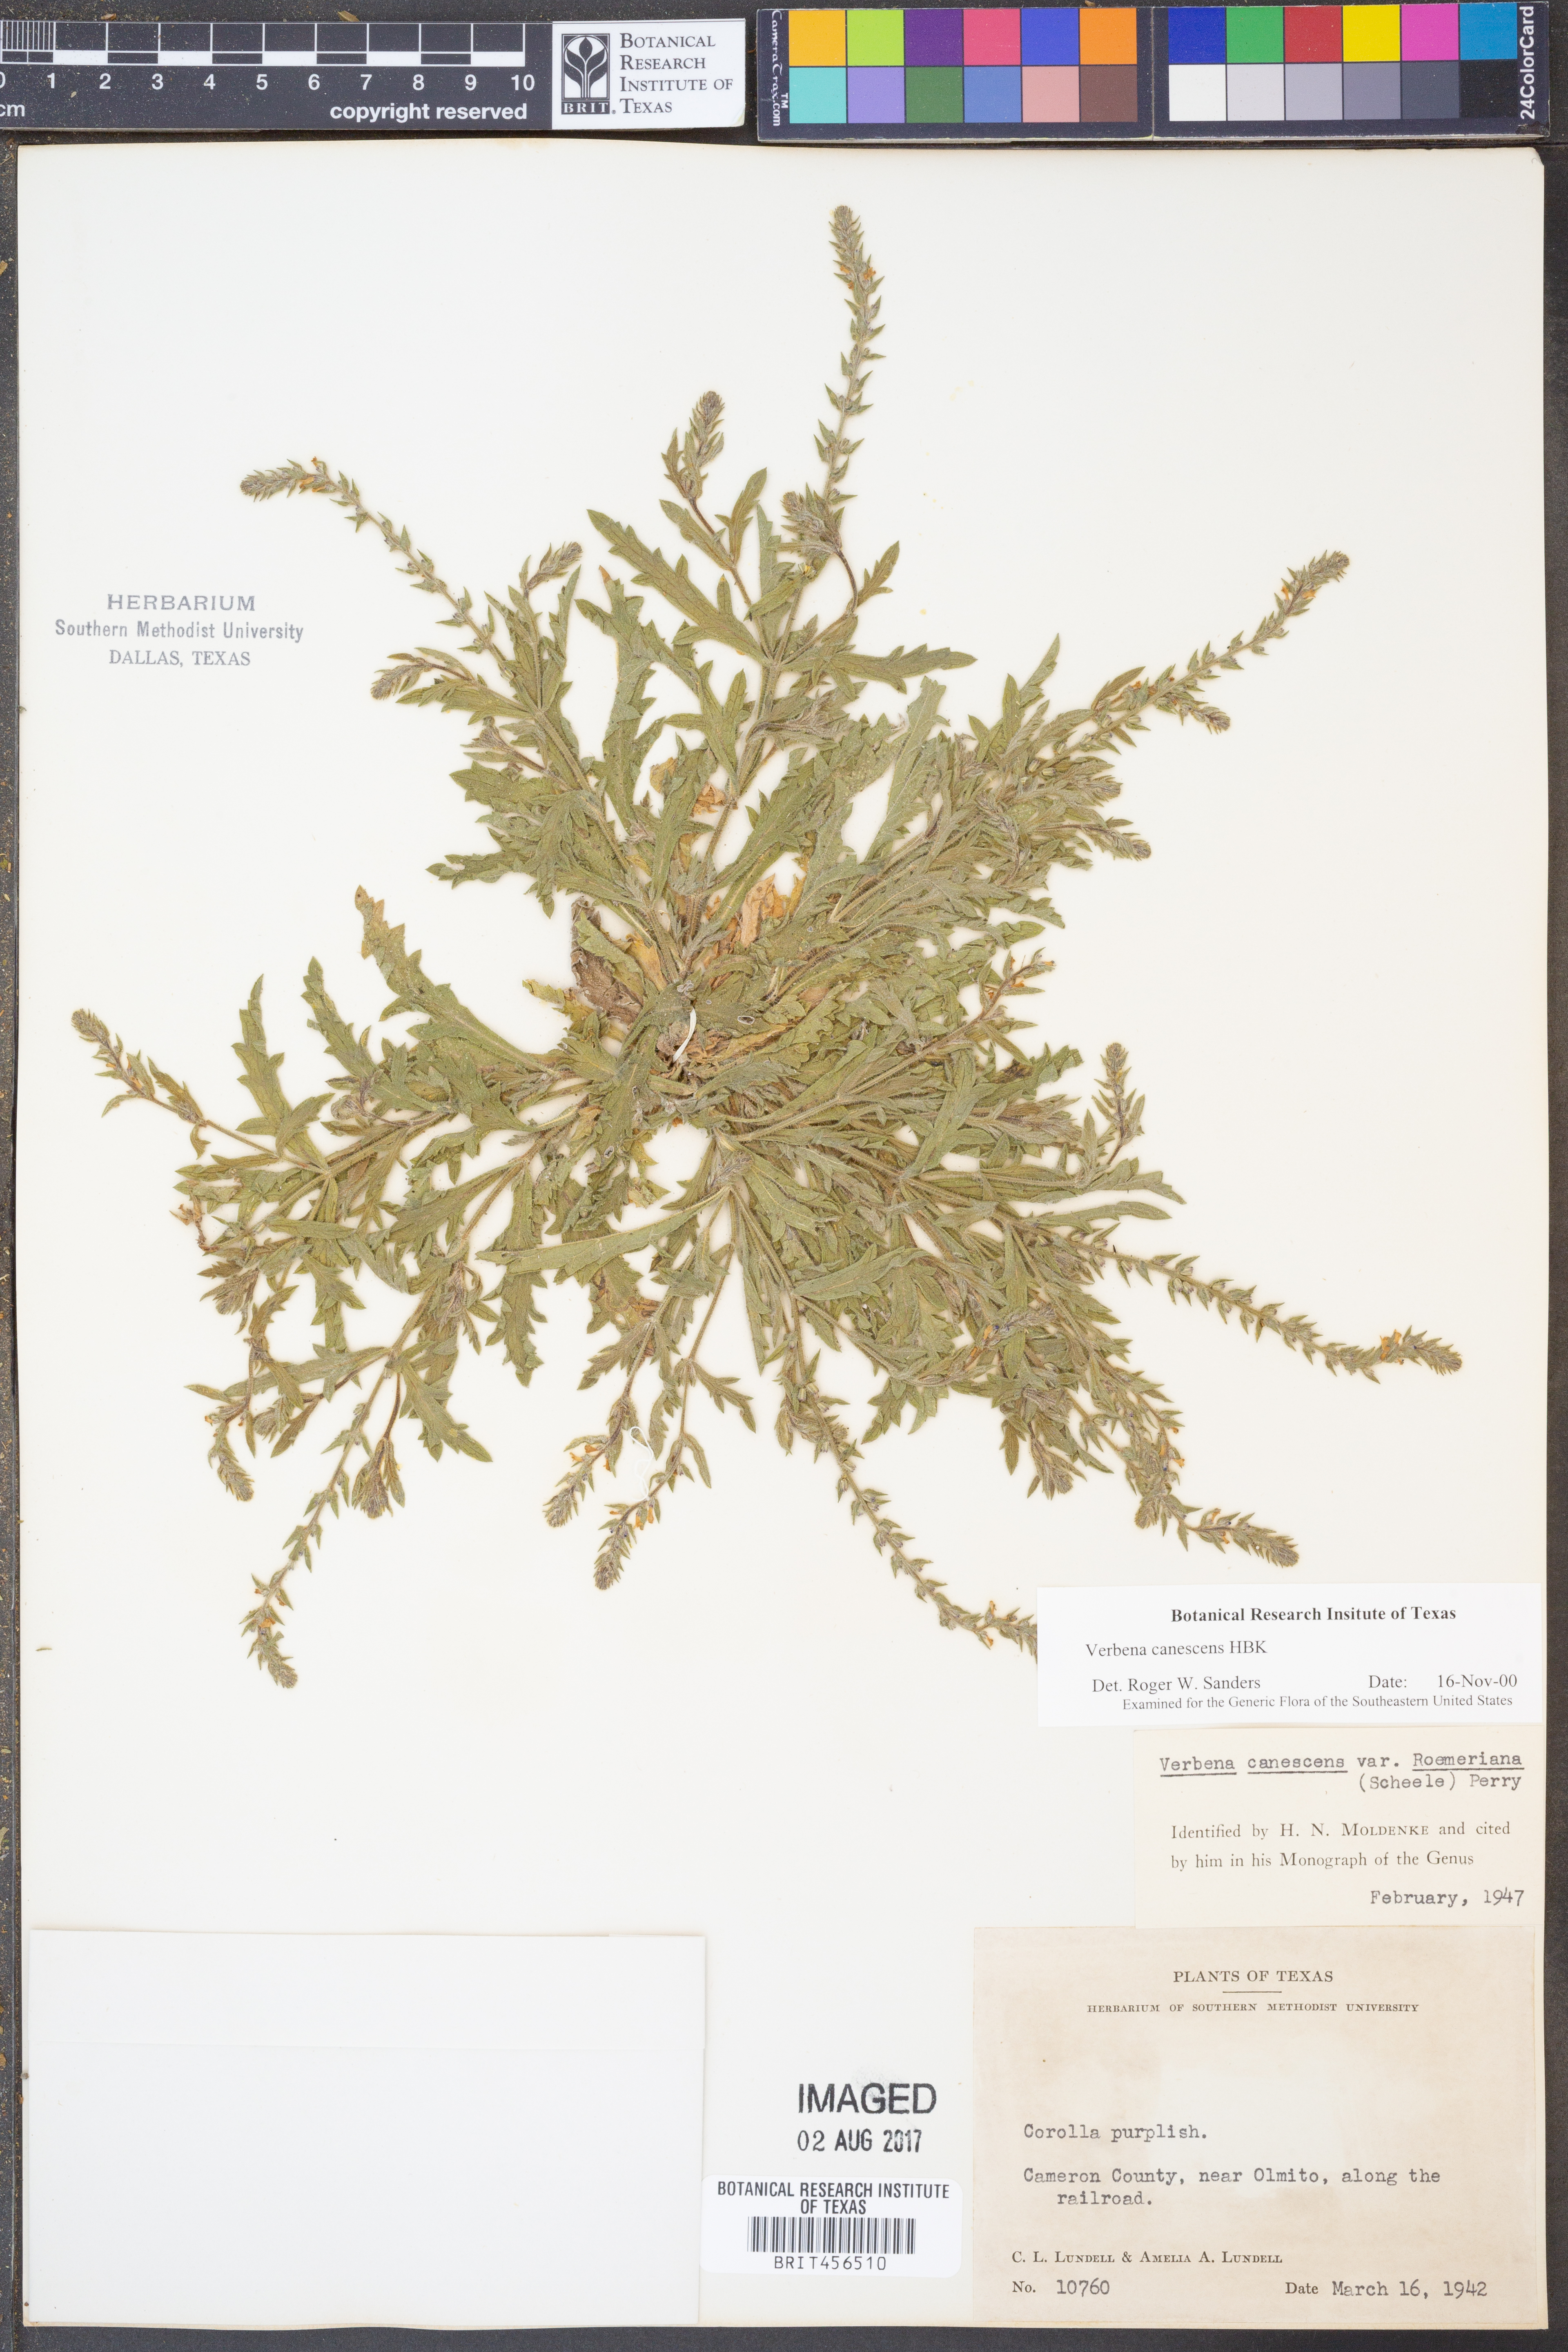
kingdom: Plantae
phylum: Tracheophyta
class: Magnoliopsida
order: Lamiales
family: Verbenaceae
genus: Verbena
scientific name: Verbena canescens
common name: Gray vervain
